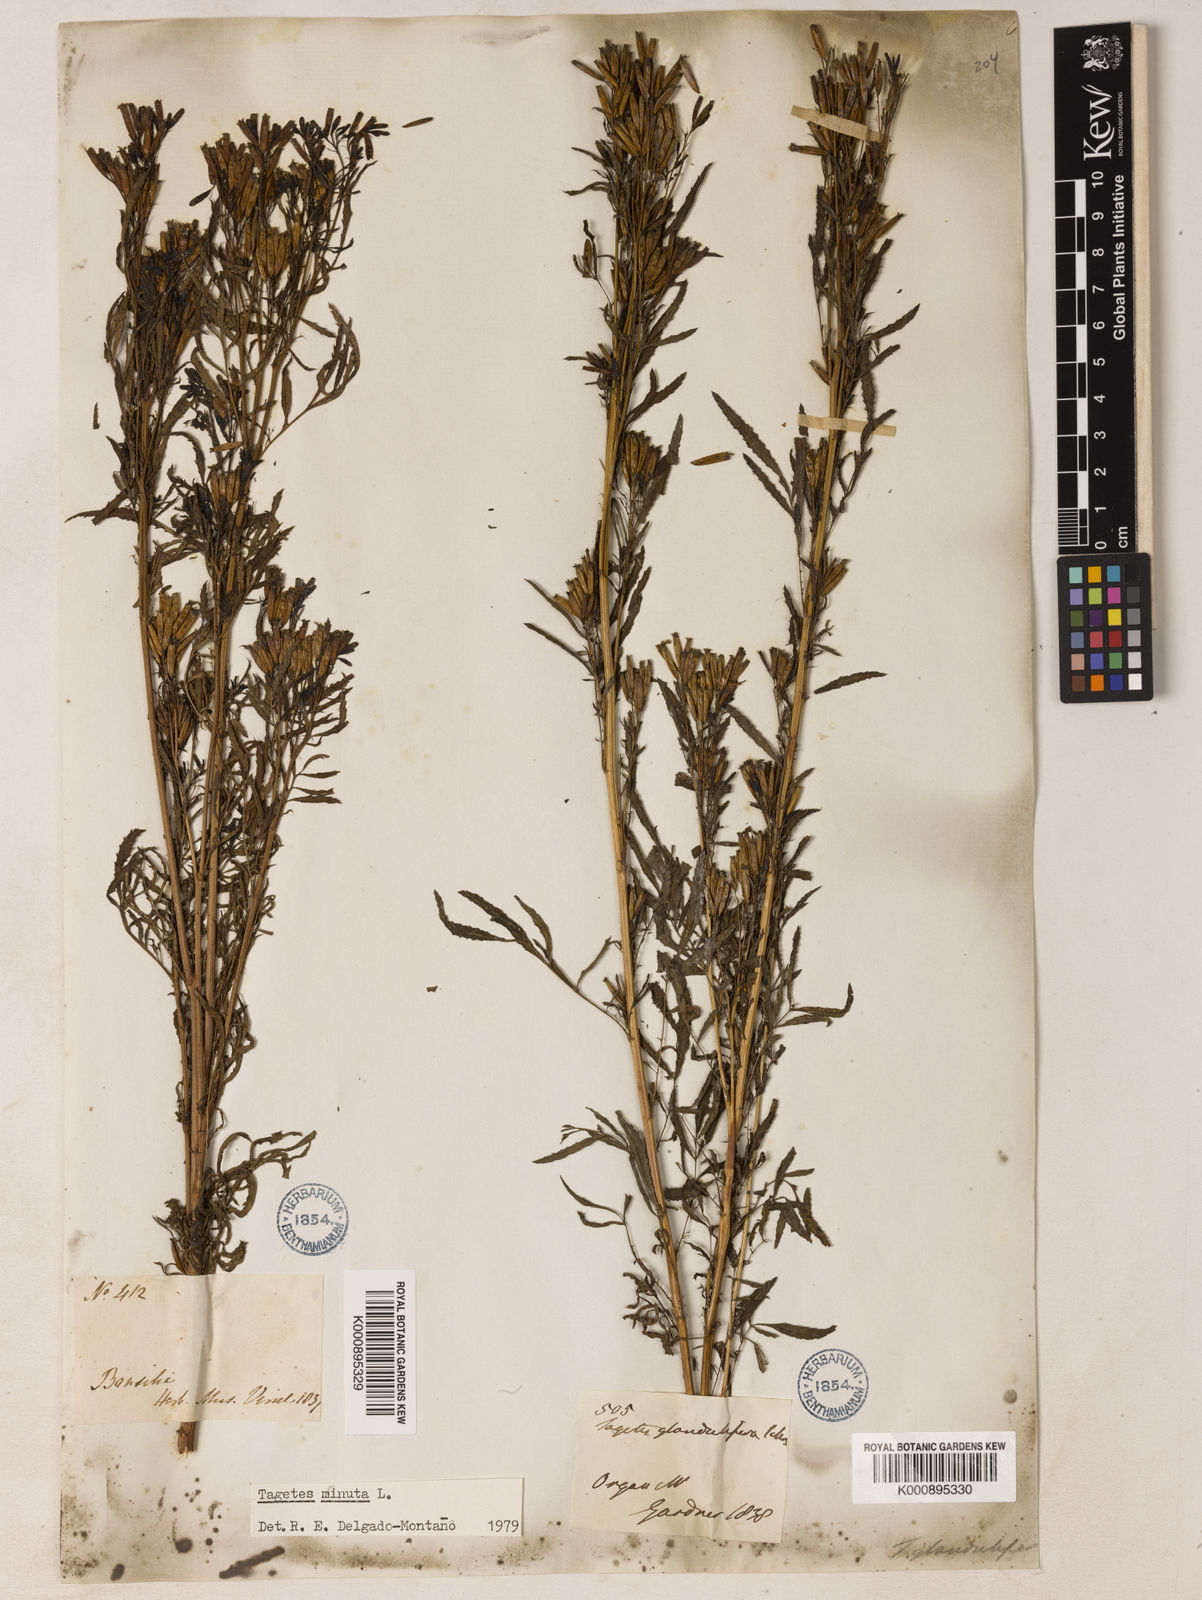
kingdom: Plantae
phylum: Tracheophyta
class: Magnoliopsida
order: Asterales
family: Asteraceae
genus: Tagetes
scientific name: Tagetes minuta
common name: Muster john henry
